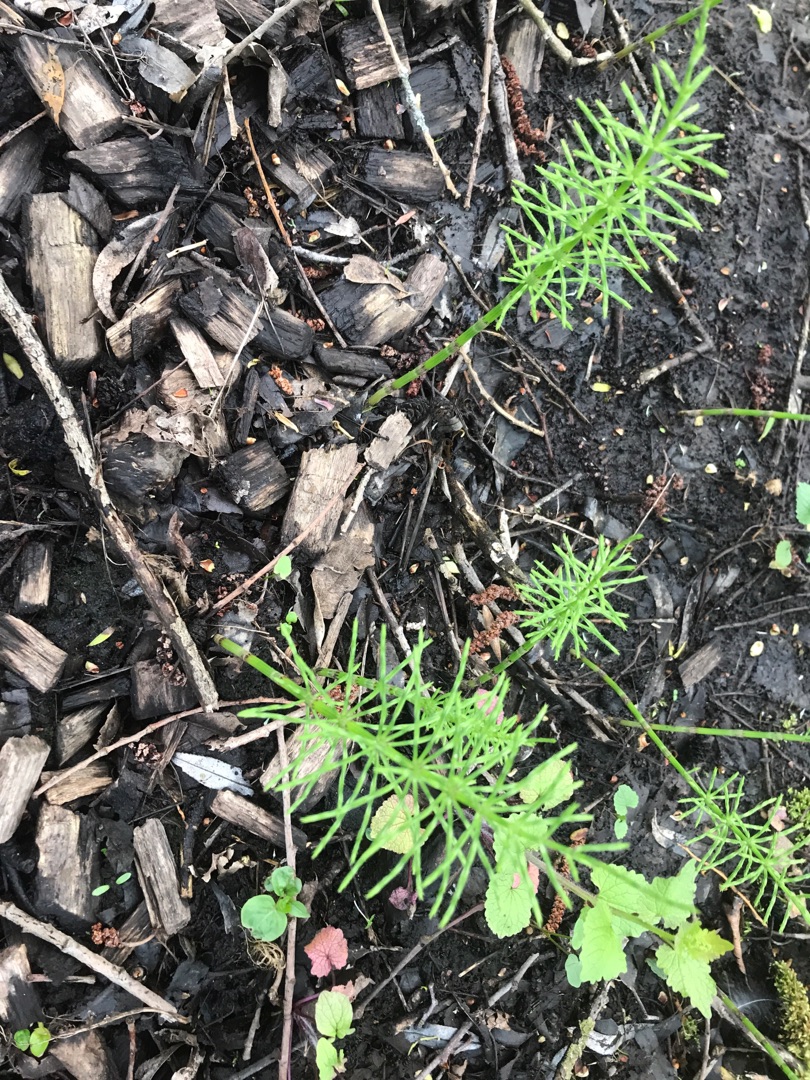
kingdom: Plantae
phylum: Tracheophyta
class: Polypodiopsida
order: Equisetales
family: Equisetaceae
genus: Equisetum
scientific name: Equisetum arvense
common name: Ager-padderok
